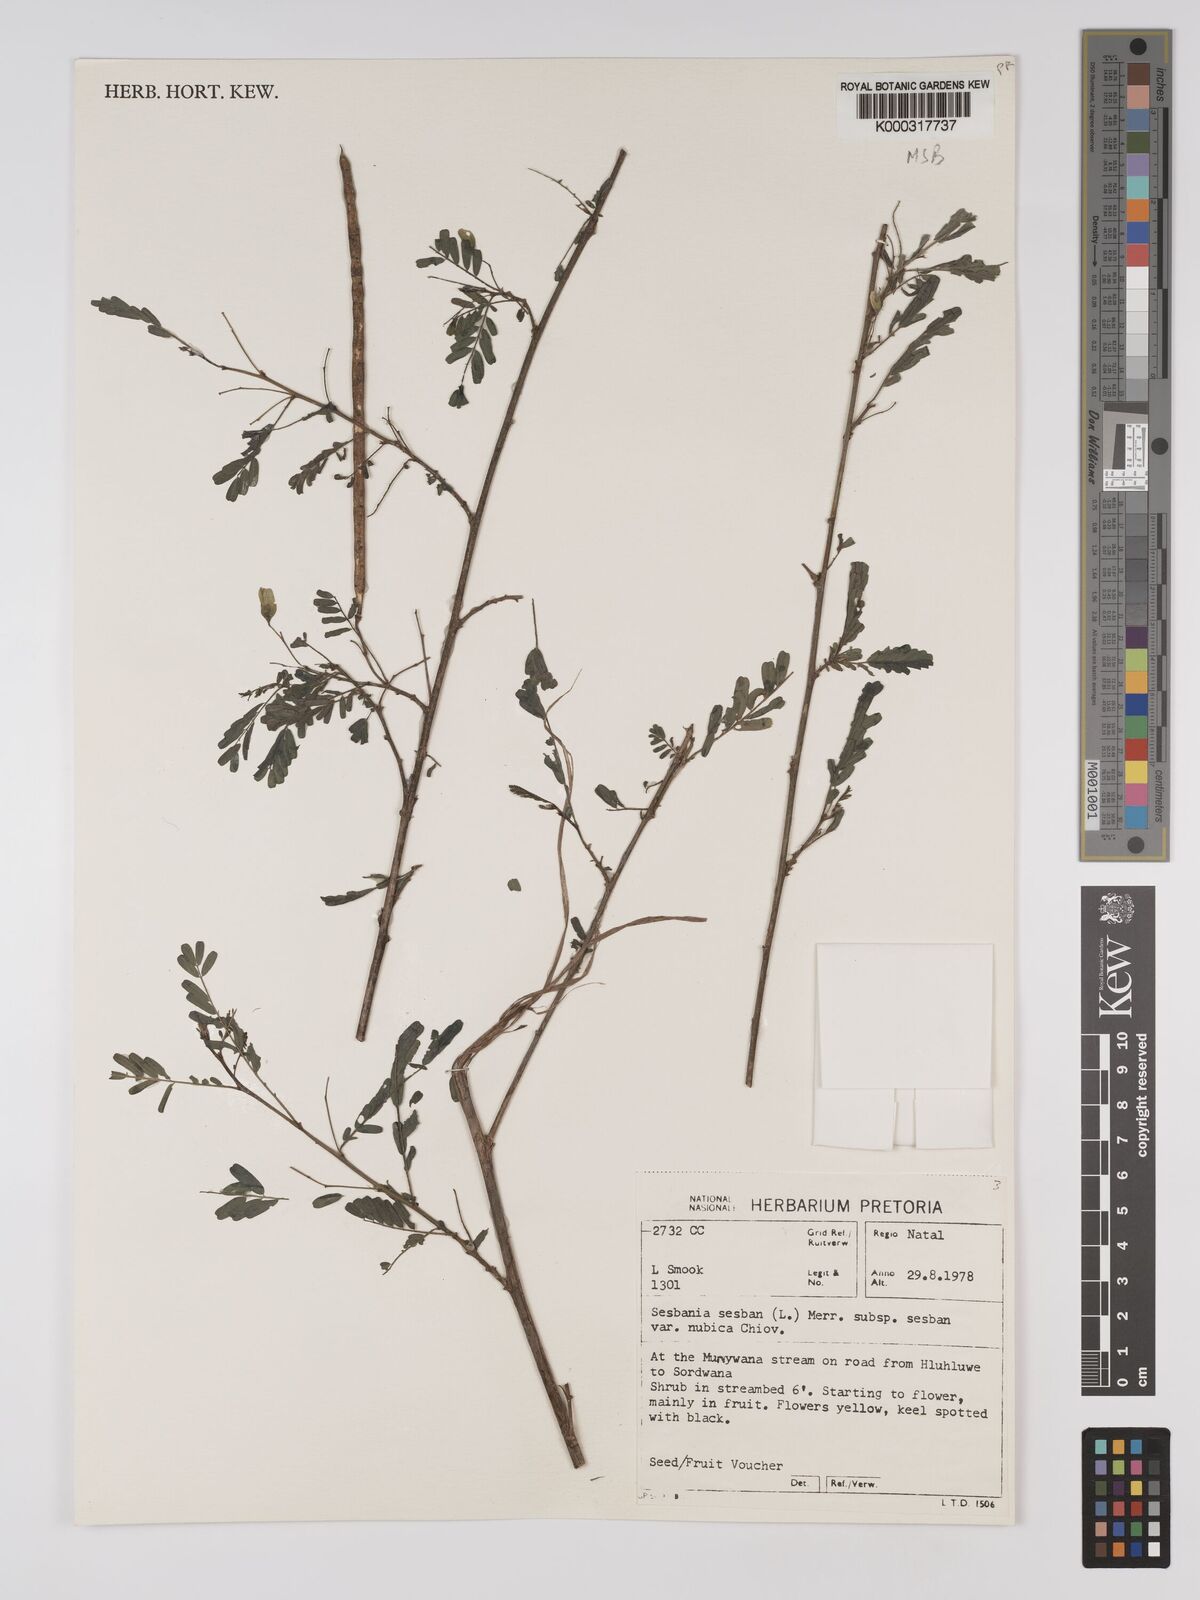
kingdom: Plantae
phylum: Tracheophyta
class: Magnoliopsida
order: Fabales
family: Fabaceae
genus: Sesbania
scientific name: Sesbania sesban
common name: Egyptian sesban
